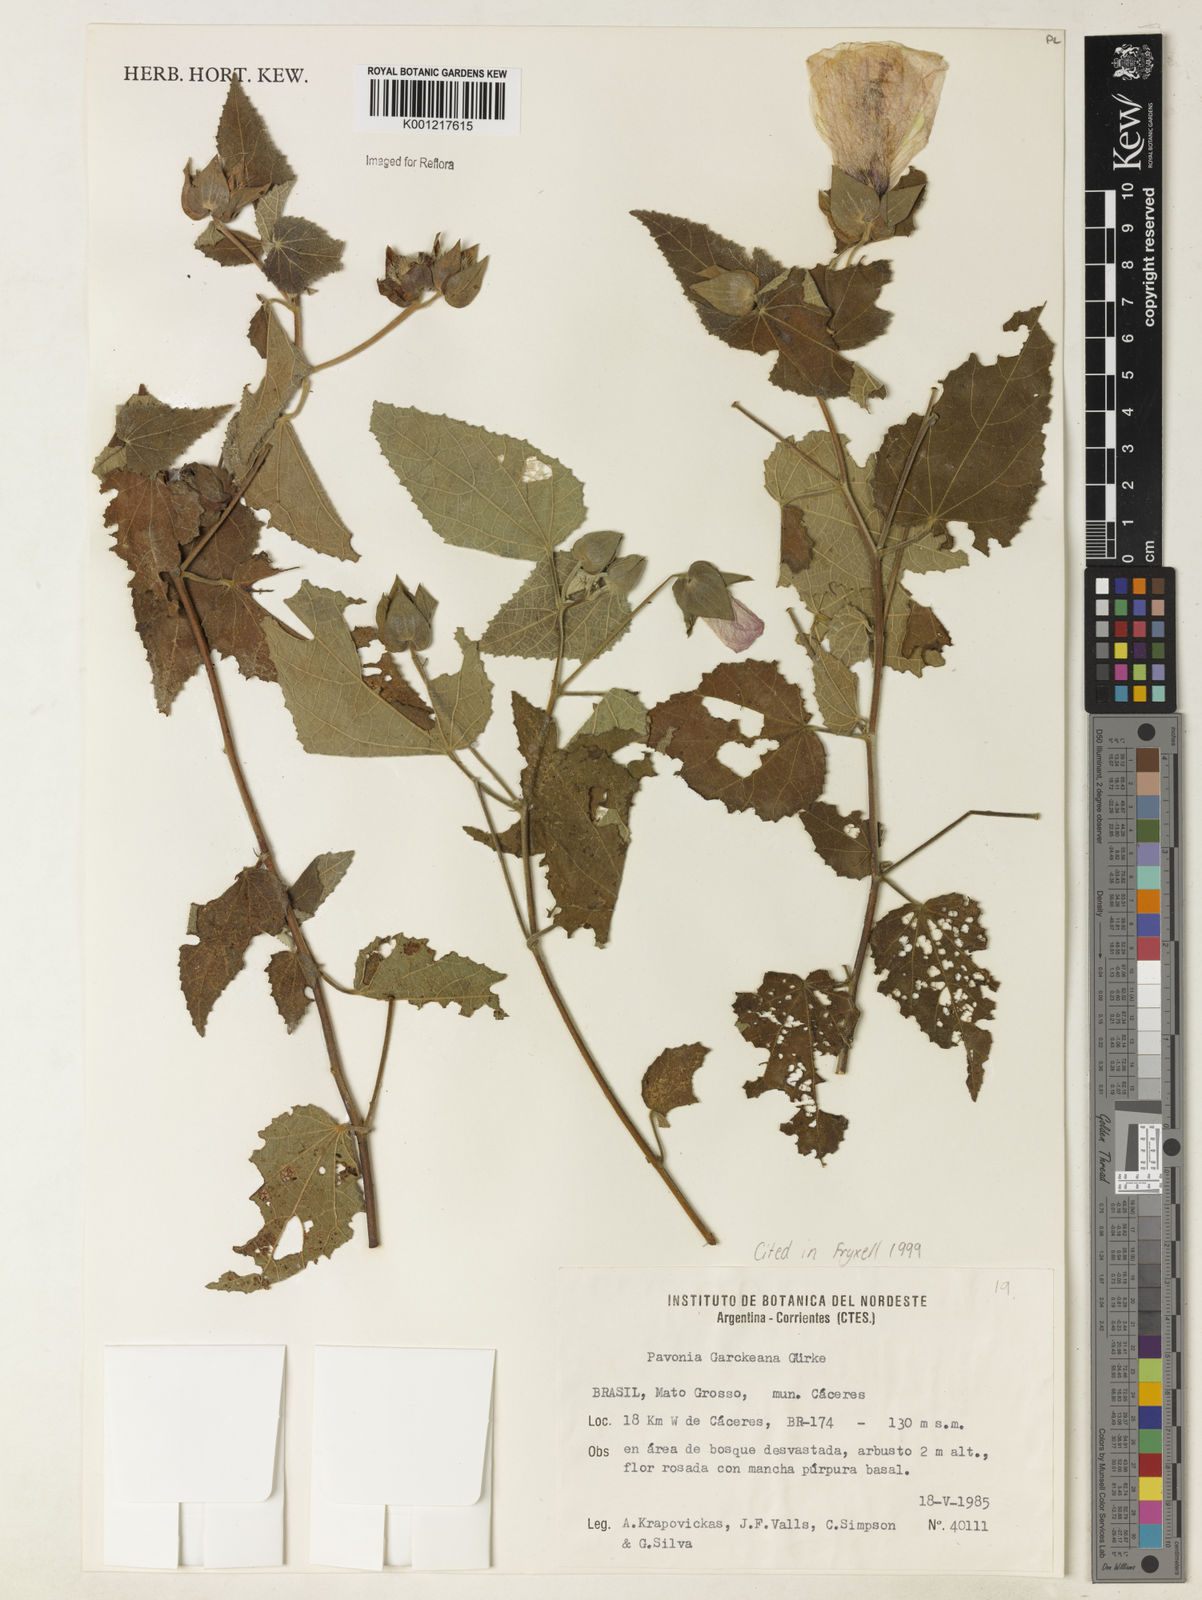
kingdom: Plantae
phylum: Tracheophyta
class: Magnoliopsida
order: Malvales
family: Malvaceae
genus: Pavonia
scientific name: Pavonia
